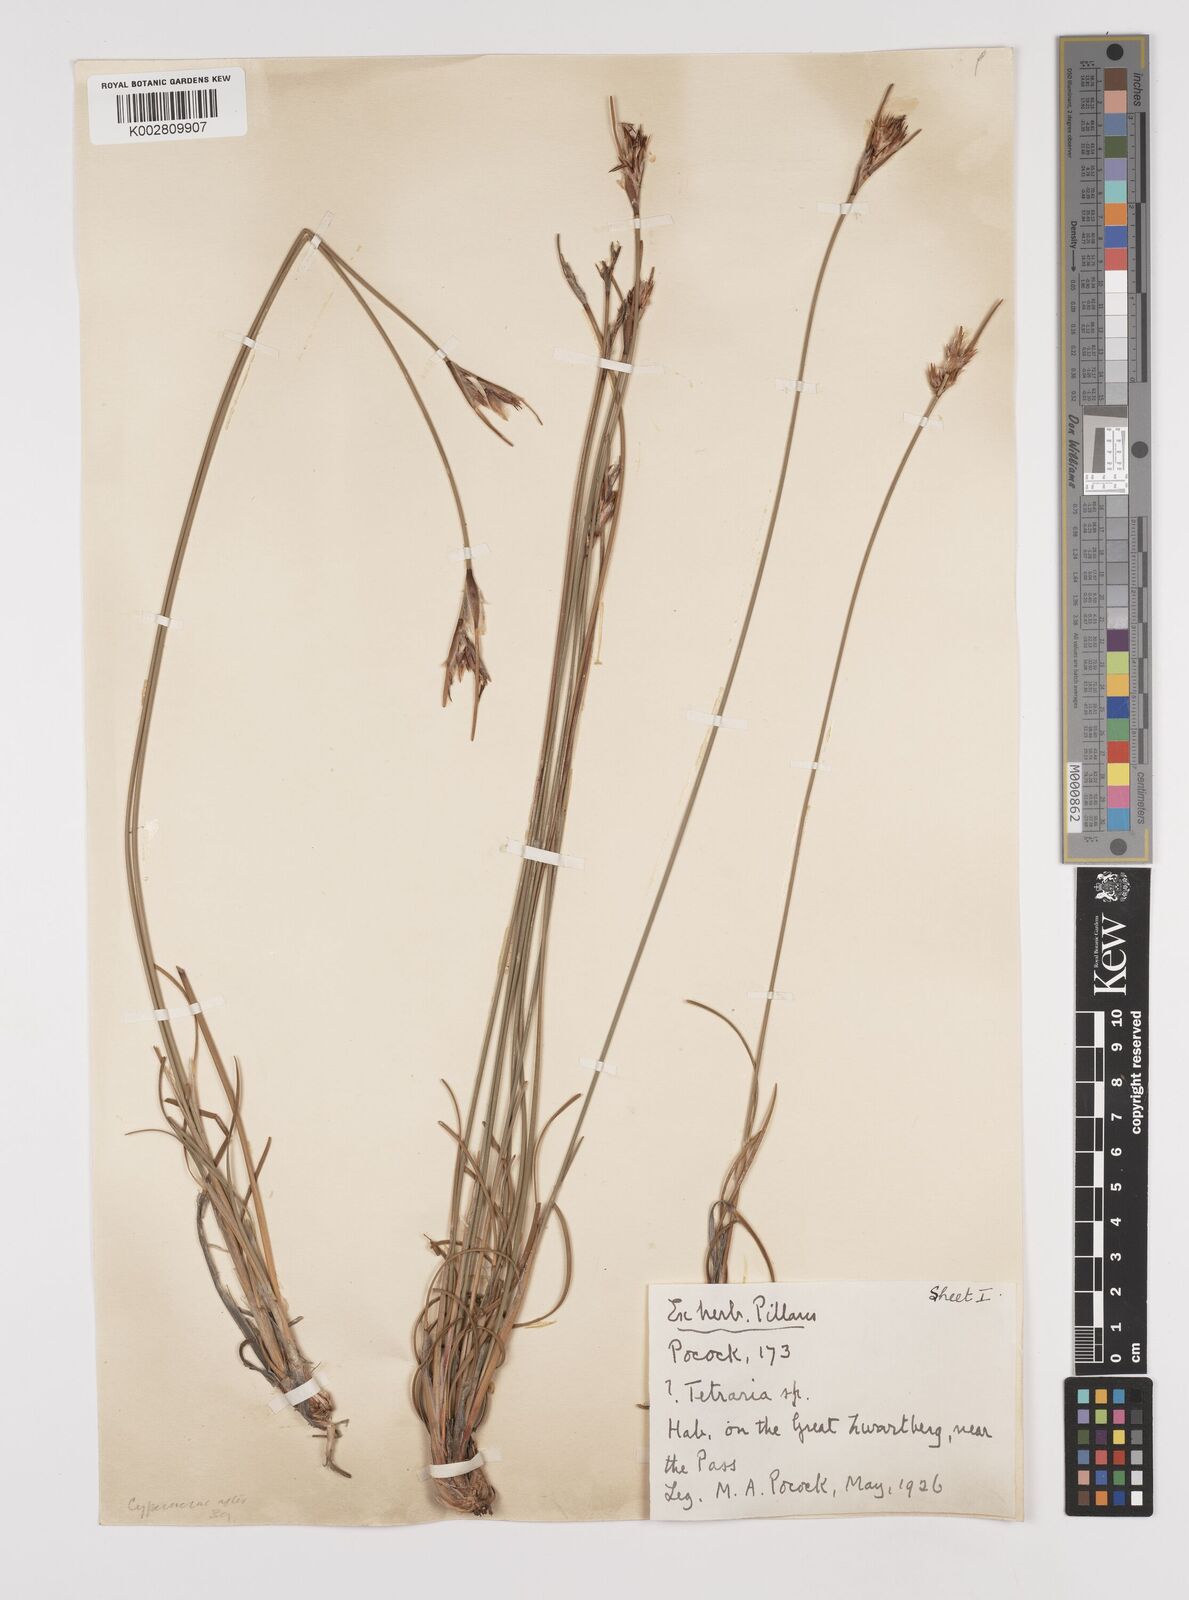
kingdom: Plantae
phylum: Tracheophyta
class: Liliopsida
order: Poales
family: Cyperaceae
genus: Schoenus
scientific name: Schoenus megacarpus
